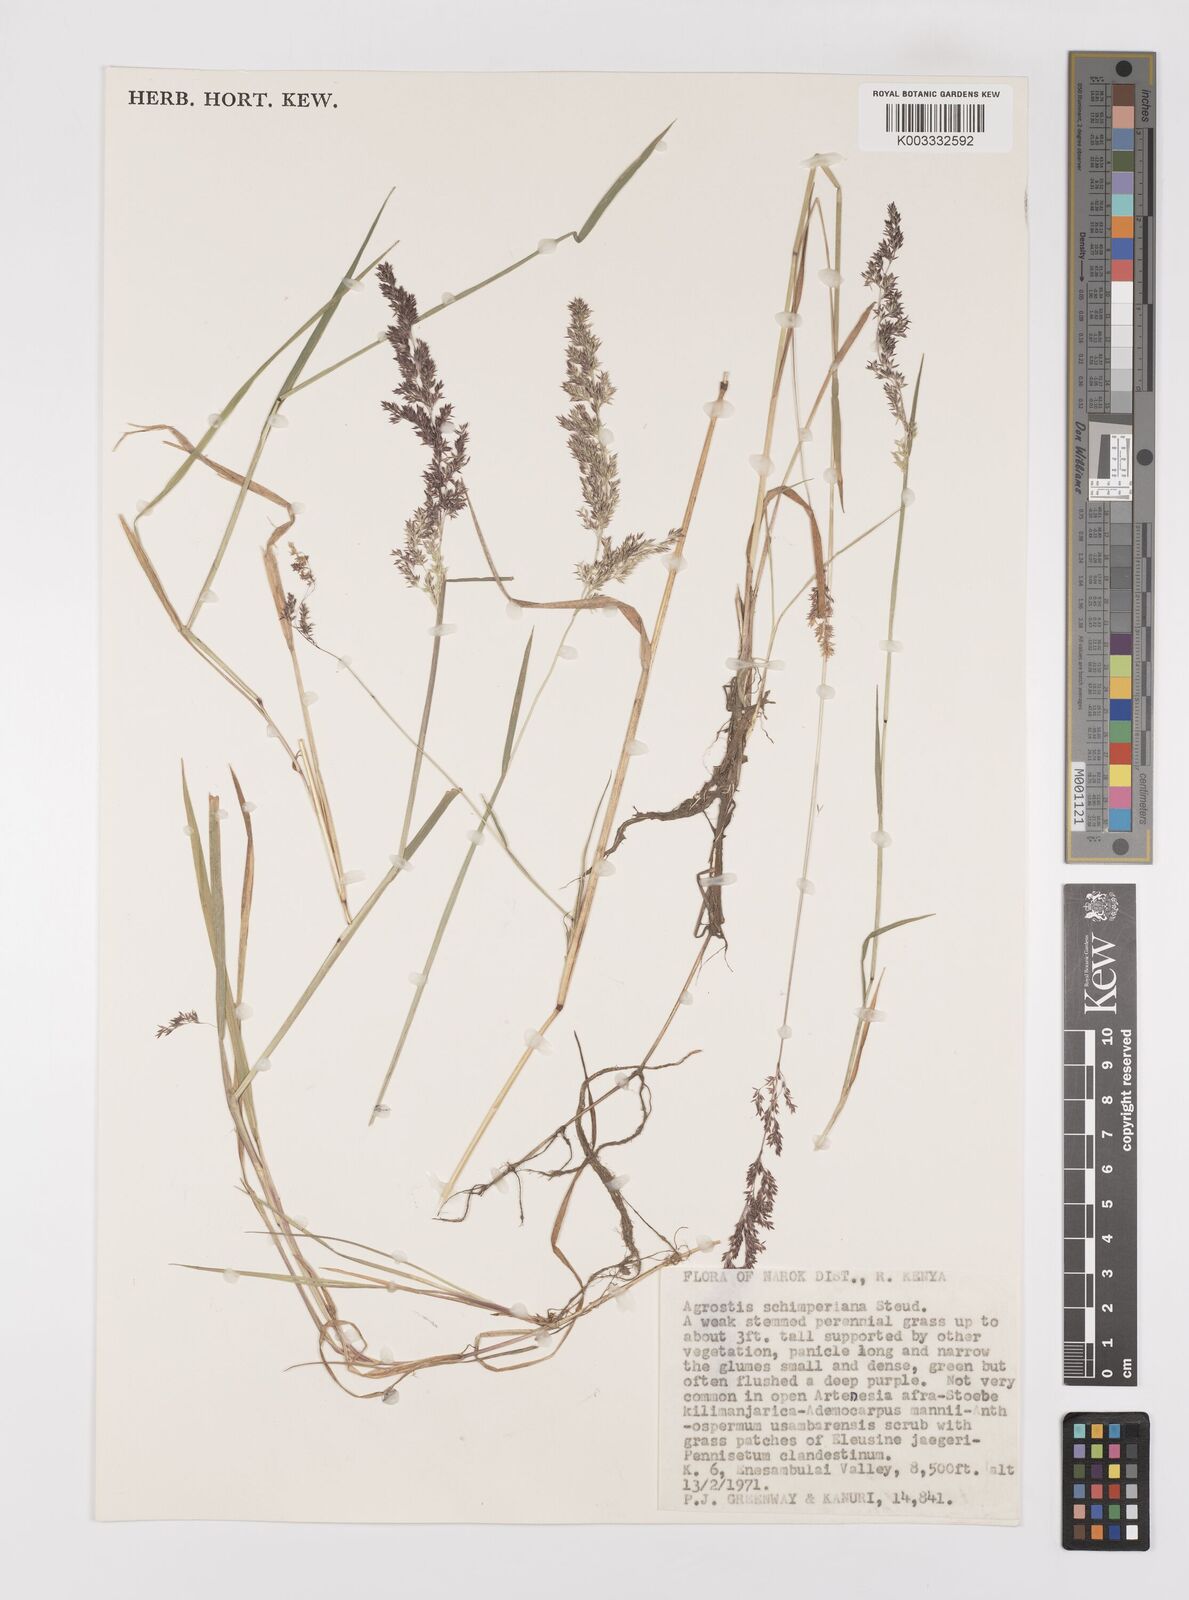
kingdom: Plantae
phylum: Tracheophyta
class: Liliopsida
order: Poales
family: Poaceae
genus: Polypogon
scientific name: Polypogon schimperianus
